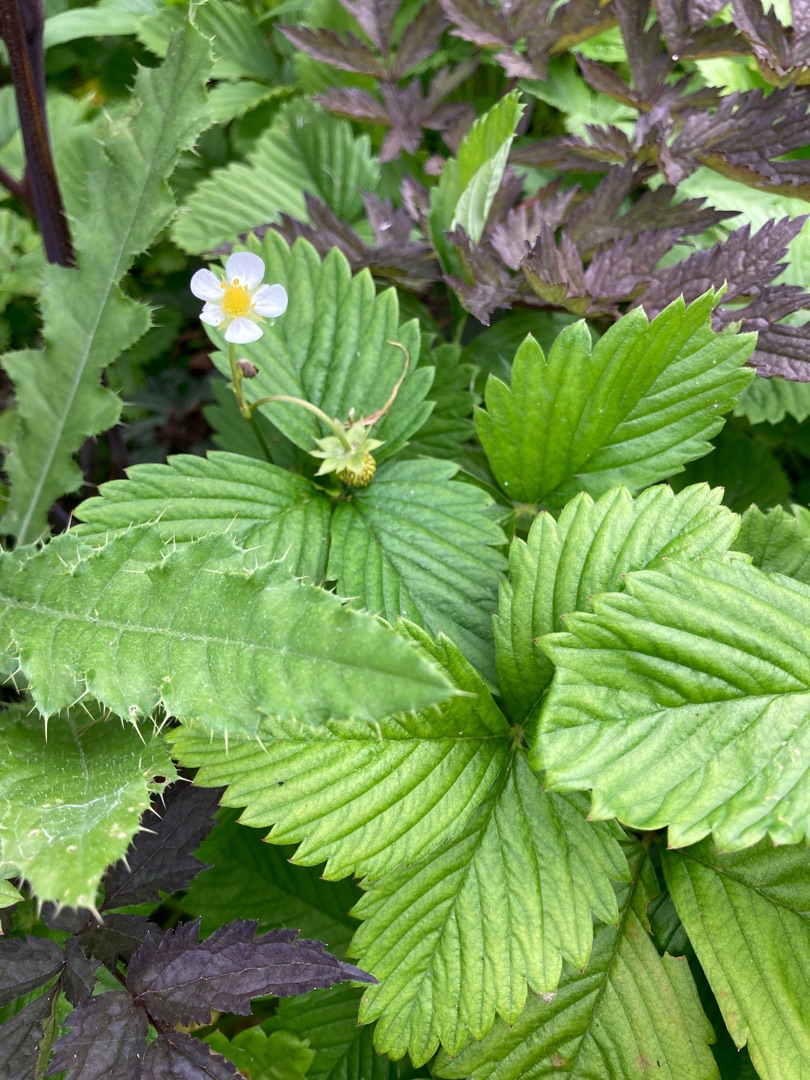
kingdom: Plantae
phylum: Tracheophyta
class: Magnoliopsida
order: Rosales
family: Rosaceae
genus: Fragaria
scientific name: Fragaria vesca
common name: Skov-jordbær
